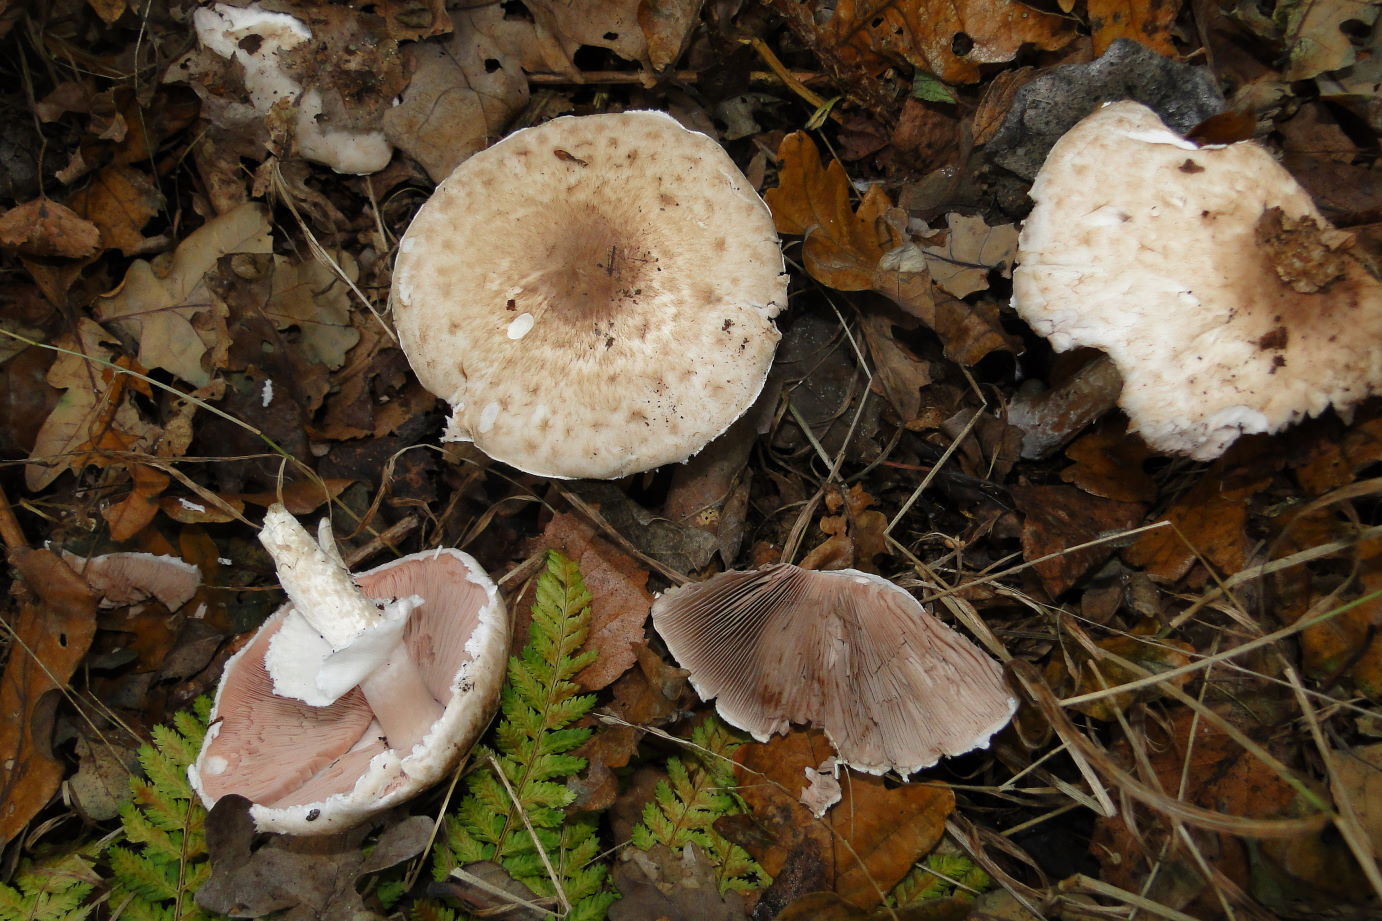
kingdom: Fungi
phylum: Basidiomycota
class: Agaricomycetes
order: Agaricales
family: Agaricaceae
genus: Agaricus
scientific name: Agaricus impudicus
